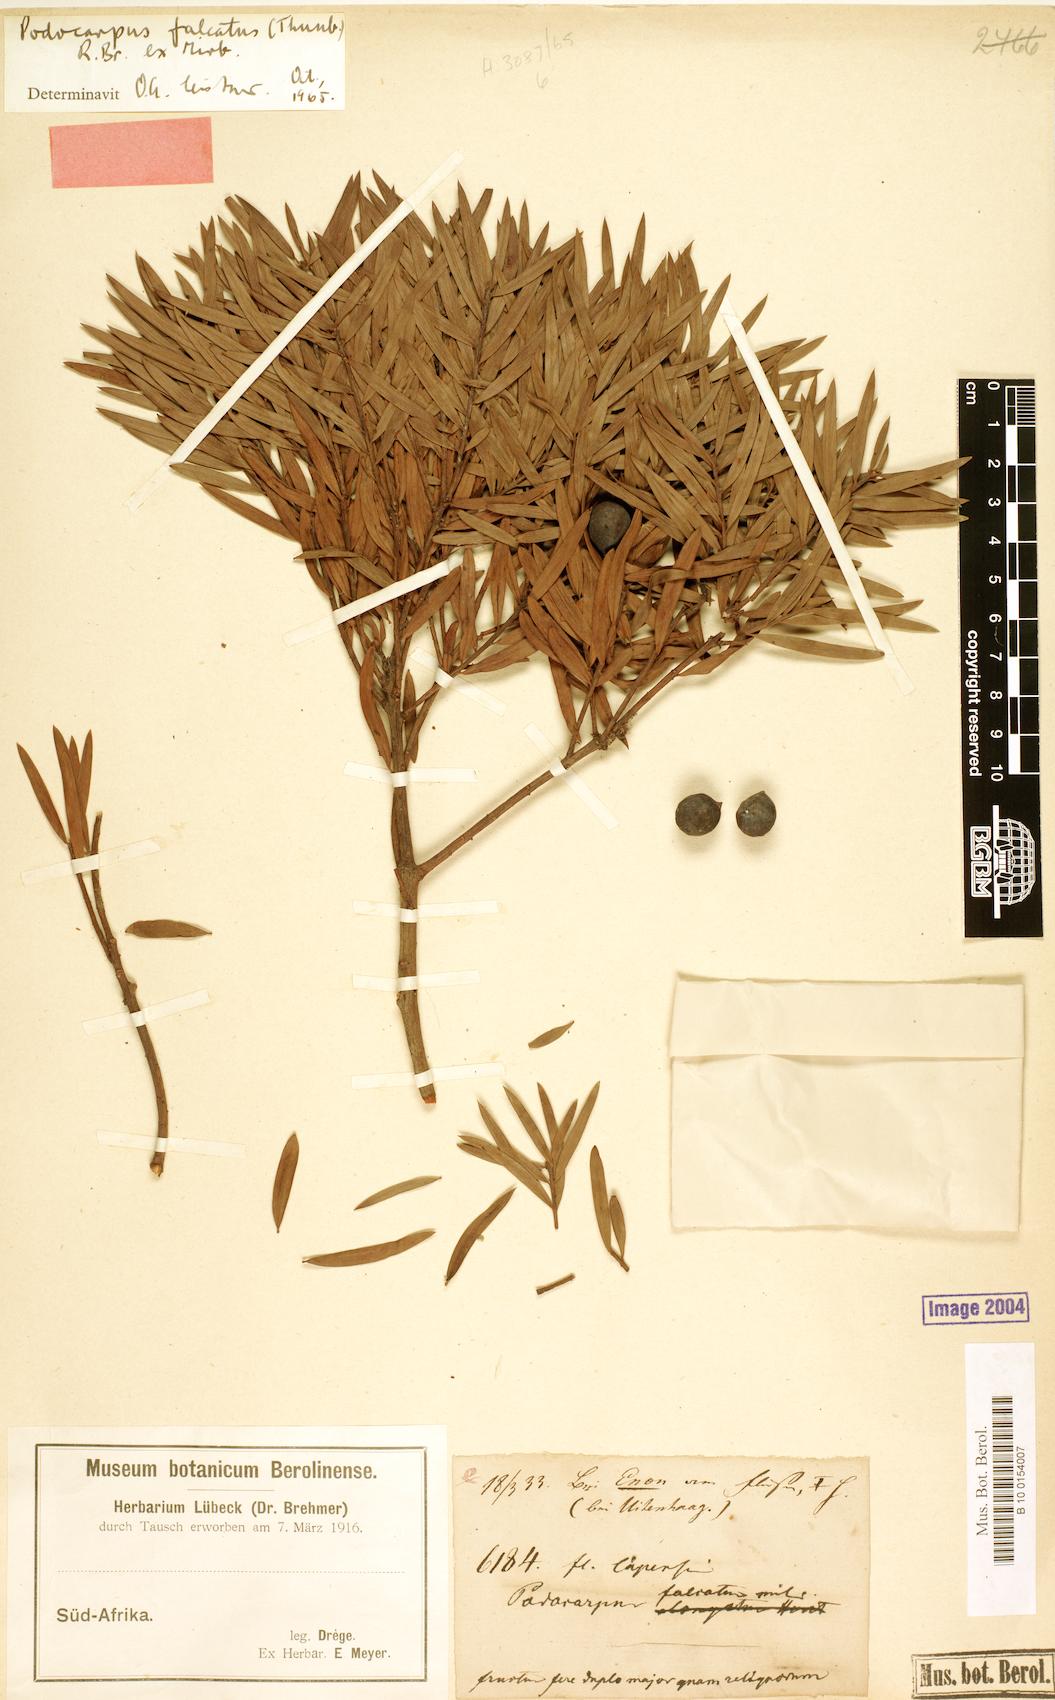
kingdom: Plantae
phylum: Tracheophyta
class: Pinopsida
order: Pinales
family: Podocarpaceae
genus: Afrocarpus
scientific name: Afrocarpus falcatus
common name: Bastard yellowwood
